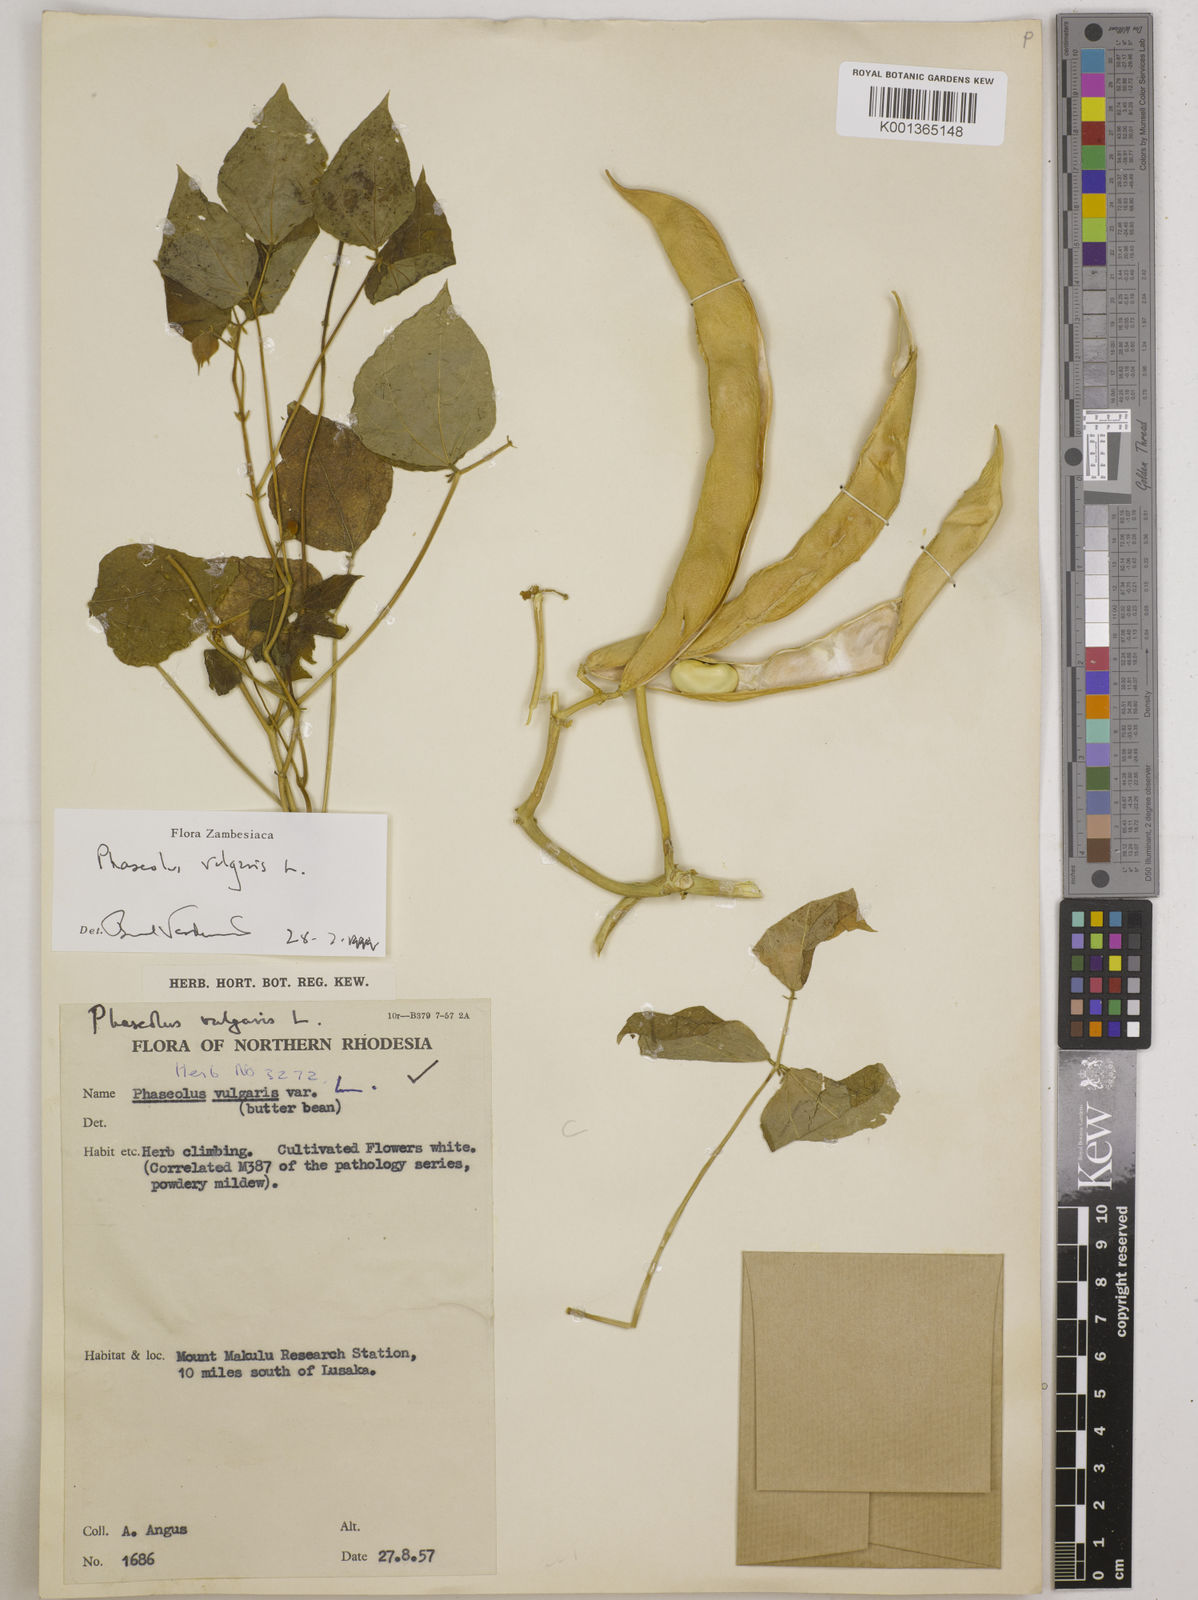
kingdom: Plantae
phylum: Tracheophyta
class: Magnoliopsida
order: Fabales
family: Fabaceae
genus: Phaseolus
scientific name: Phaseolus vulgaris
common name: Bean
